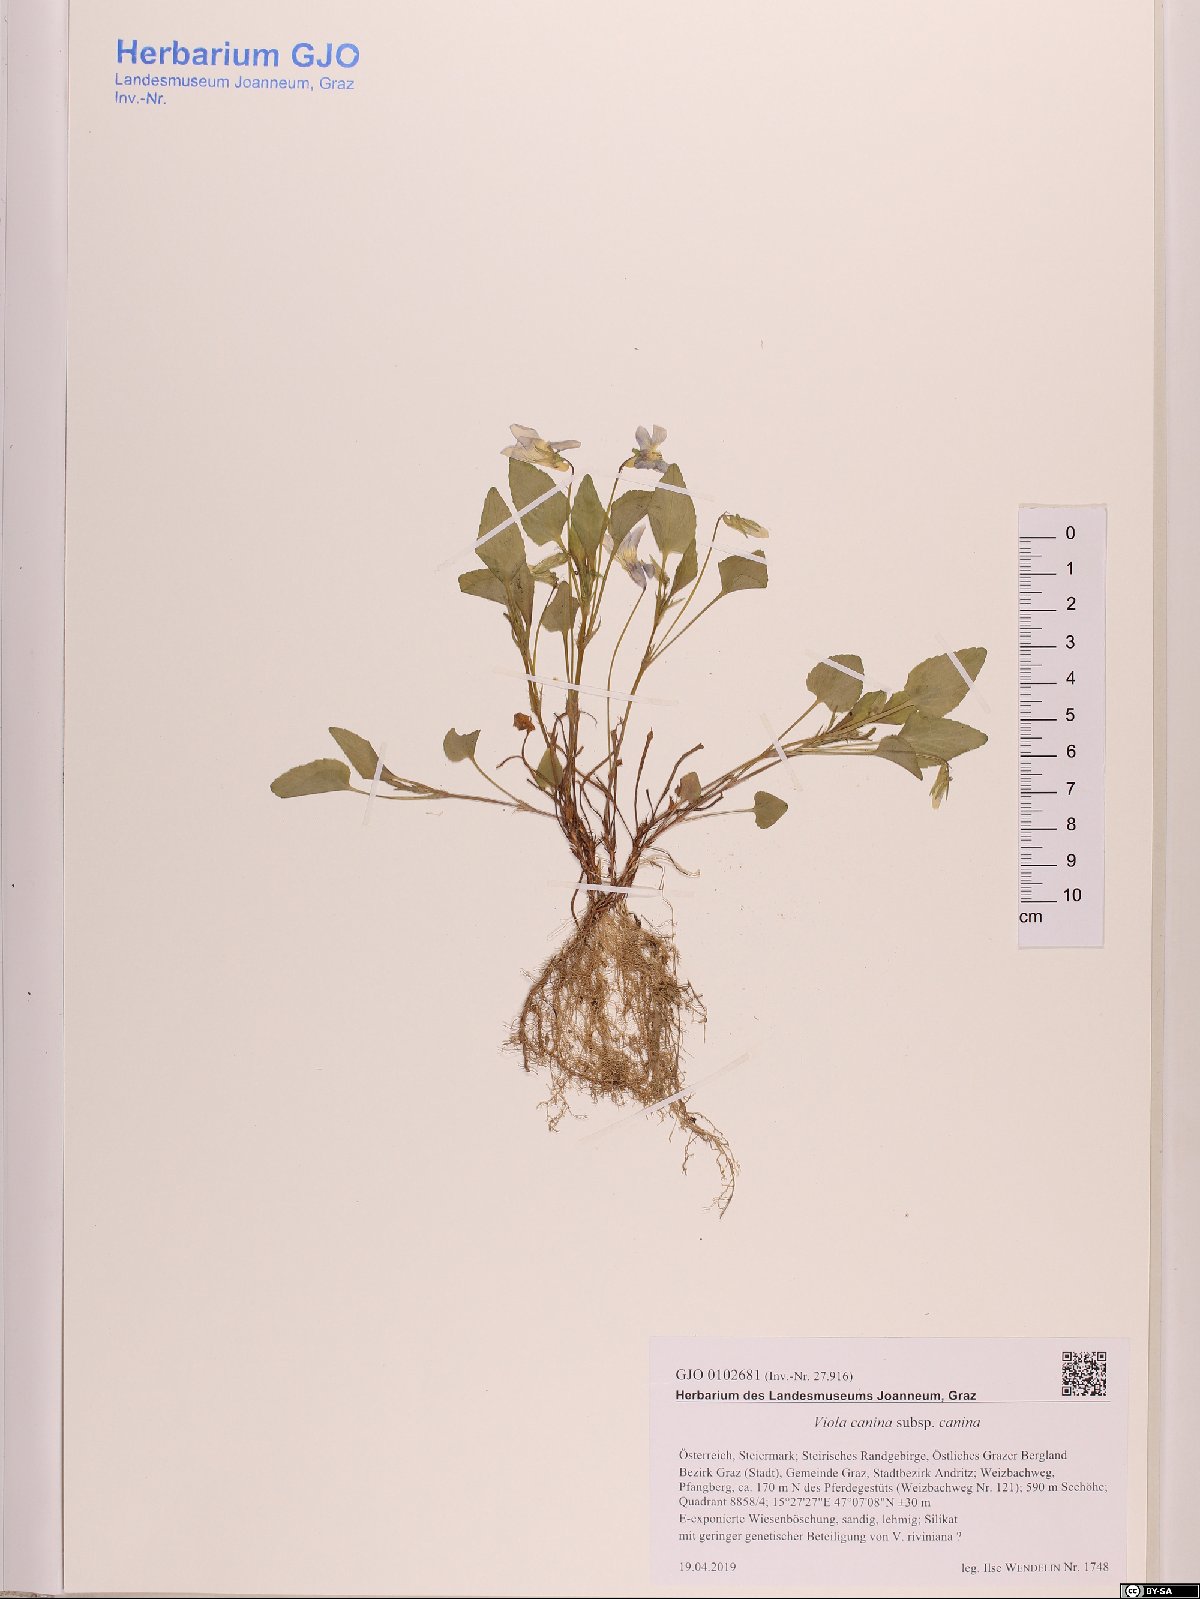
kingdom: Plantae
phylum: Tracheophyta
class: Magnoliopsida
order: Malpighiales
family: Violaceae
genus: Viola
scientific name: Viola canina
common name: Heath dog-violet
